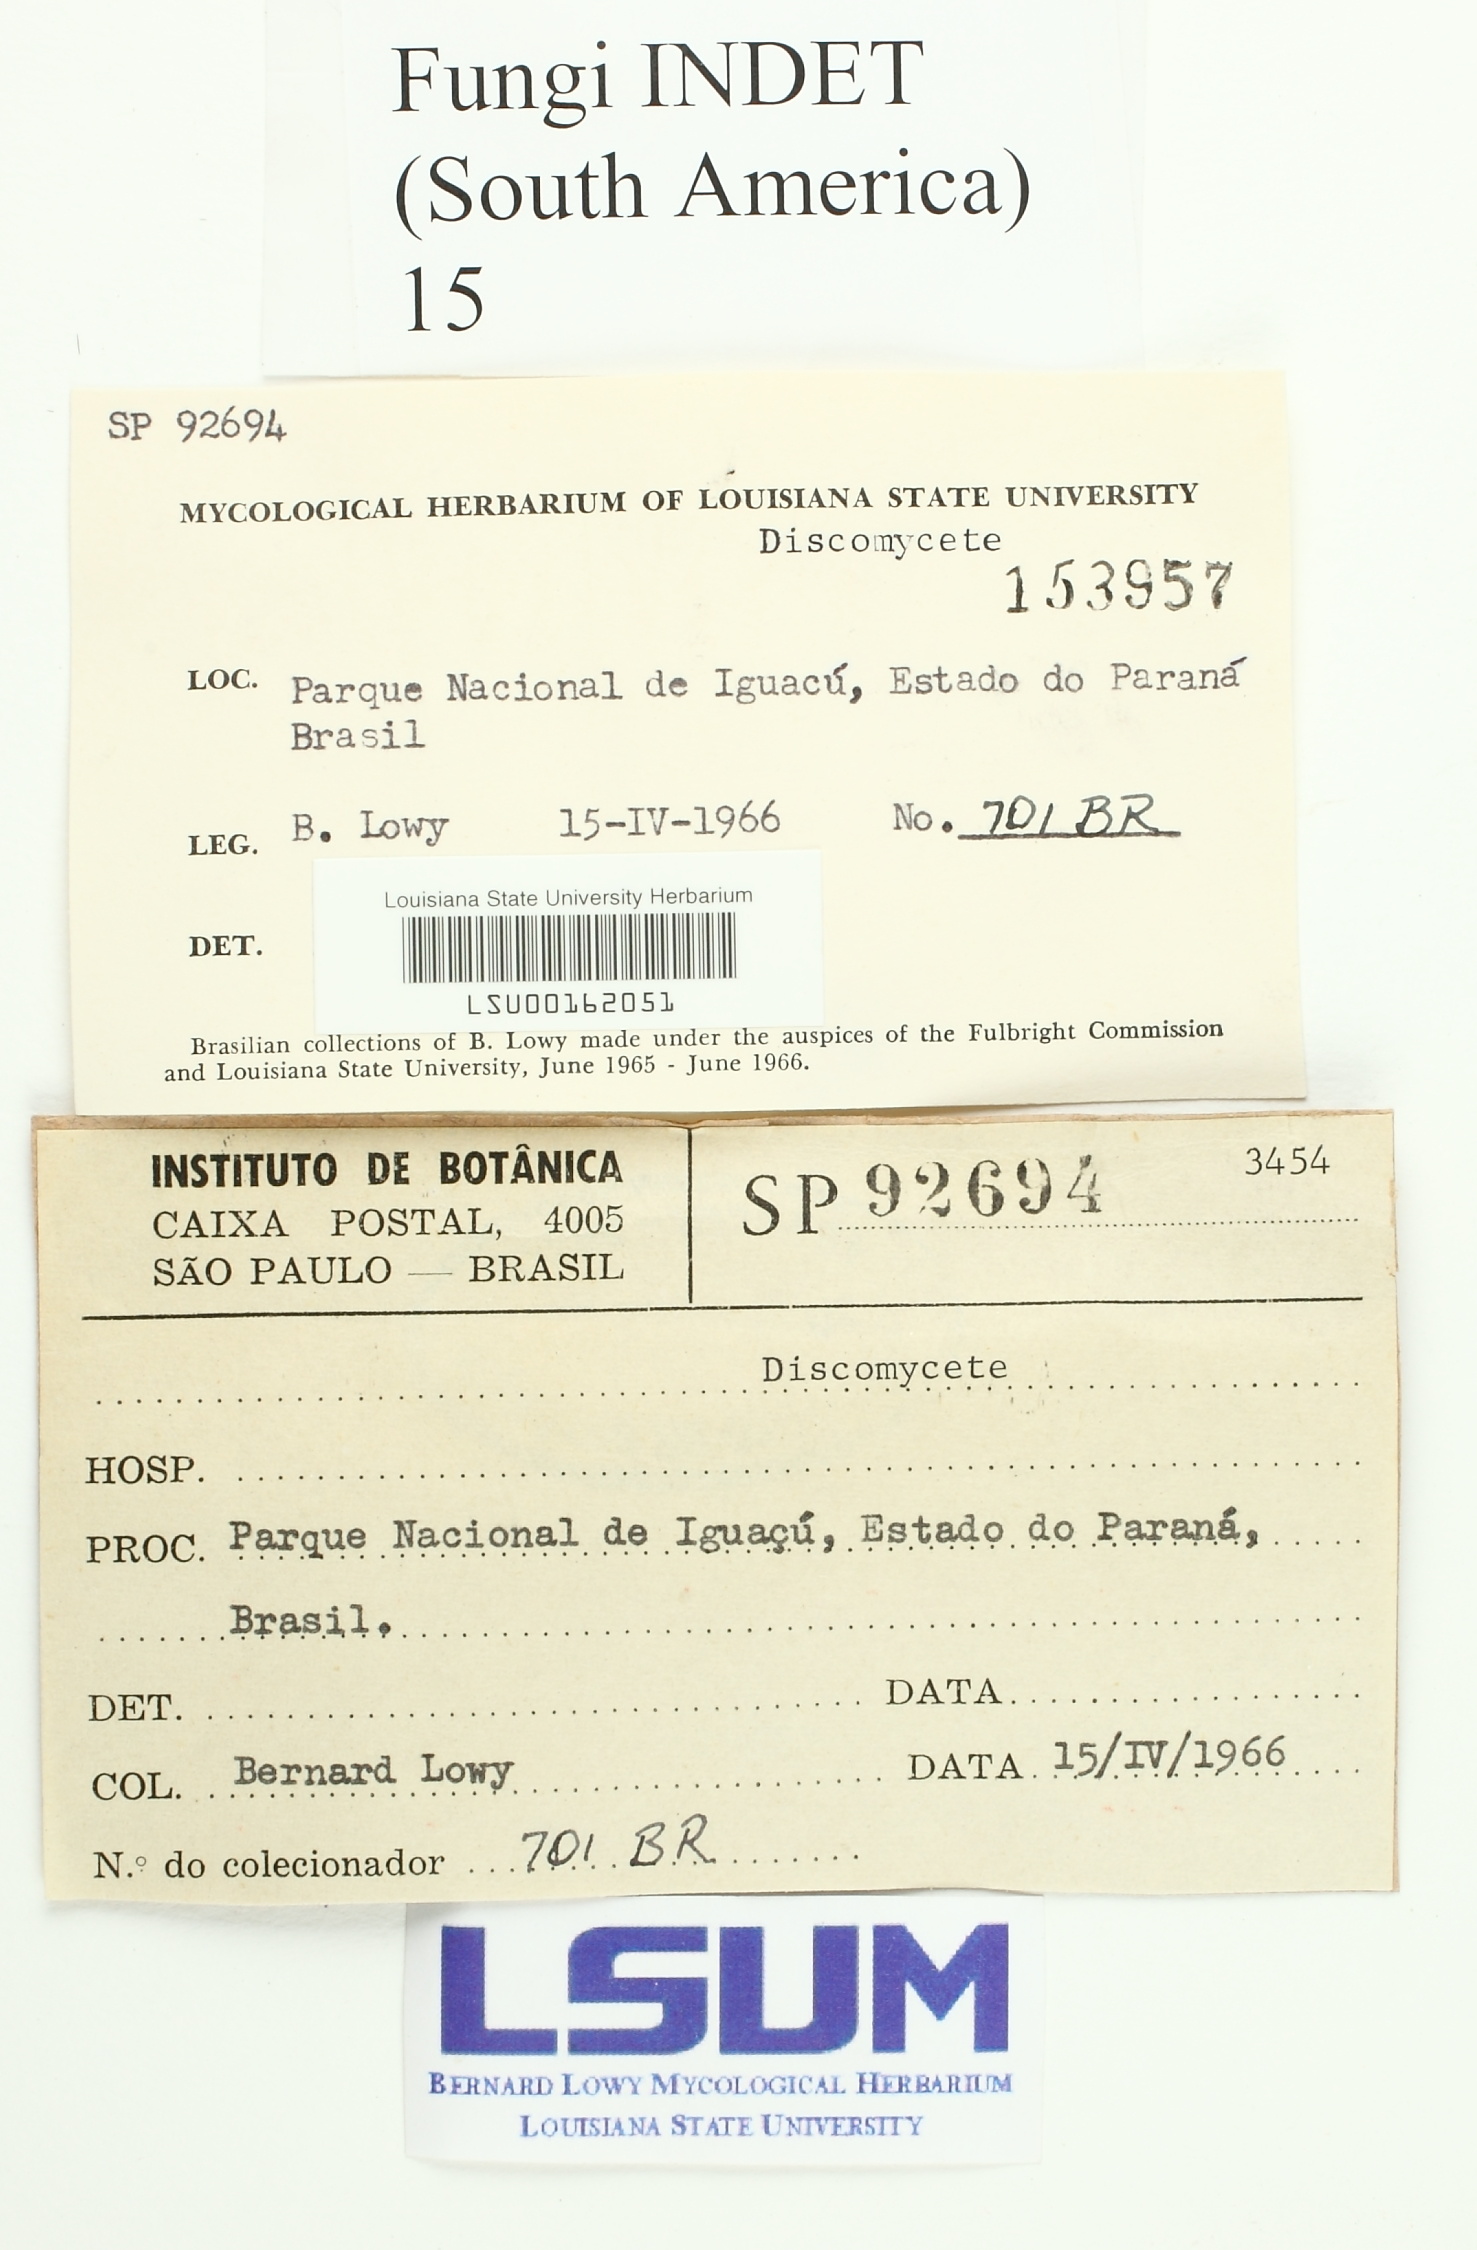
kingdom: Fungi
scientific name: Fungi
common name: Fungi
